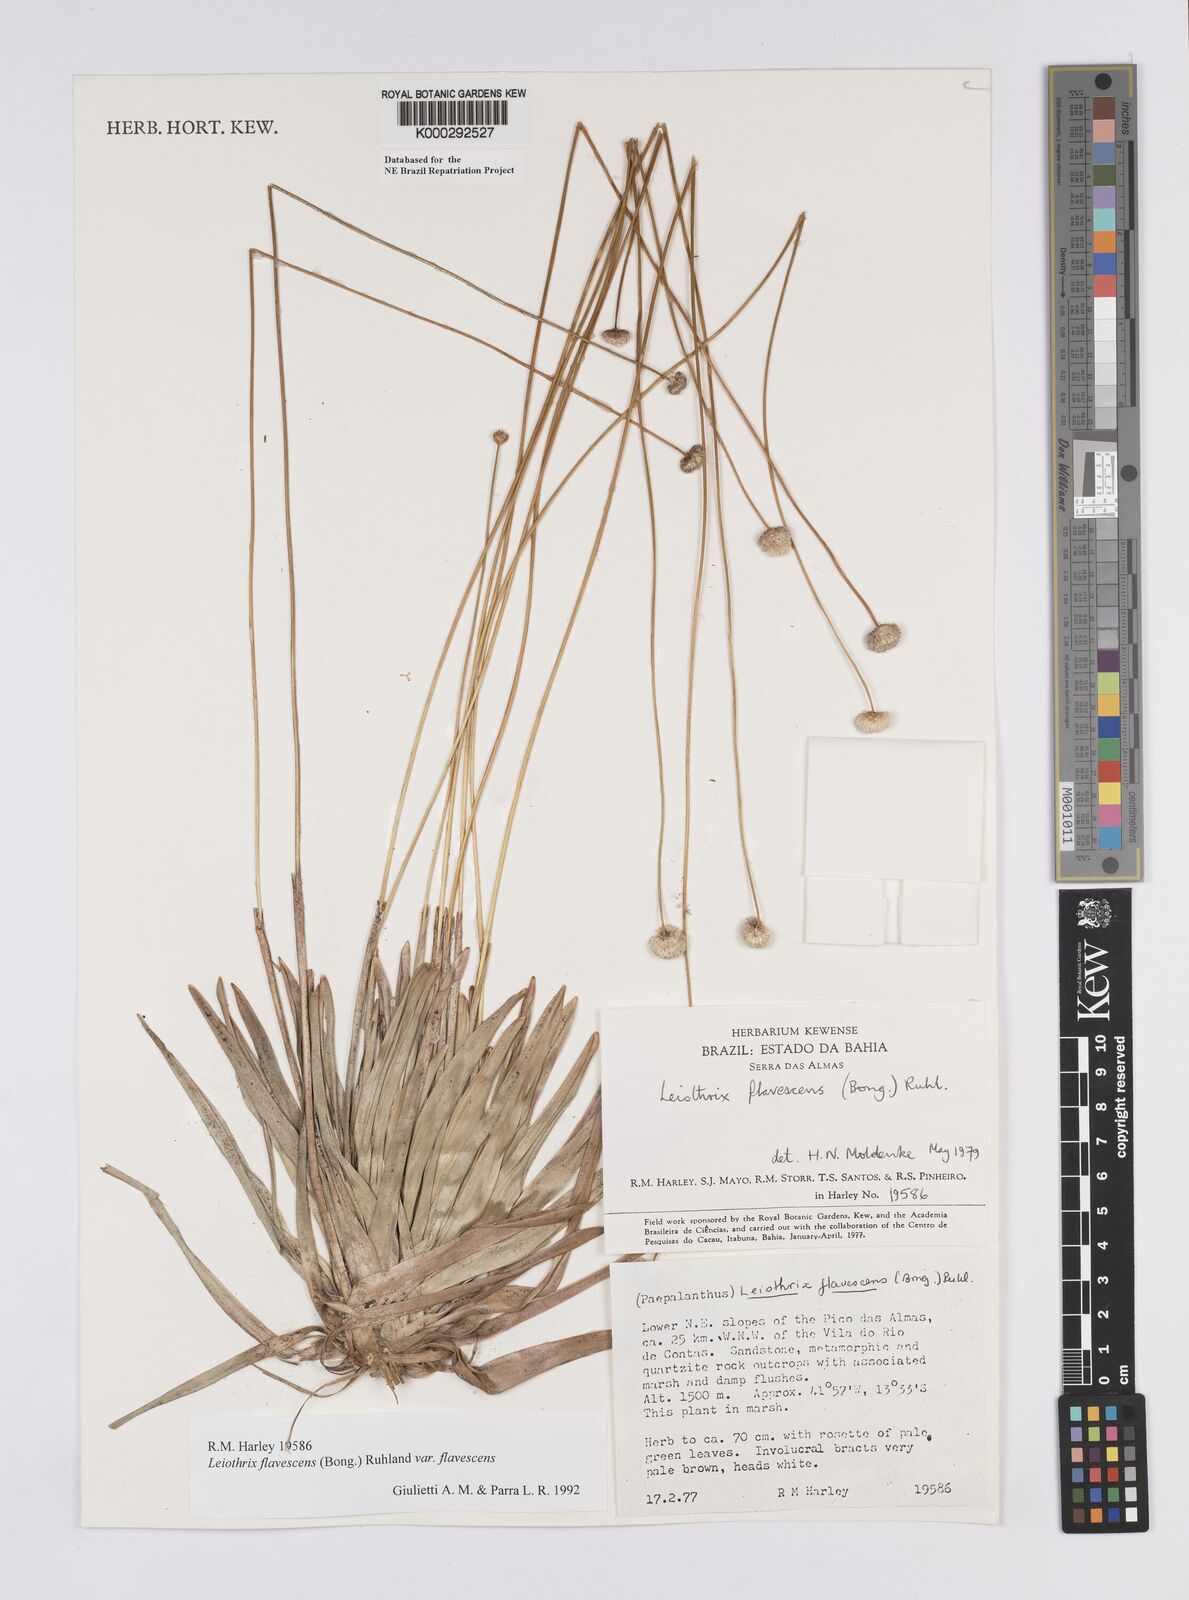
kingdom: Plantae
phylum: Tracheophyta
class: Liliopsida
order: Poales
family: Eriocaulaceae
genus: Leiothrix
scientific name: Leiothrix flavescens
